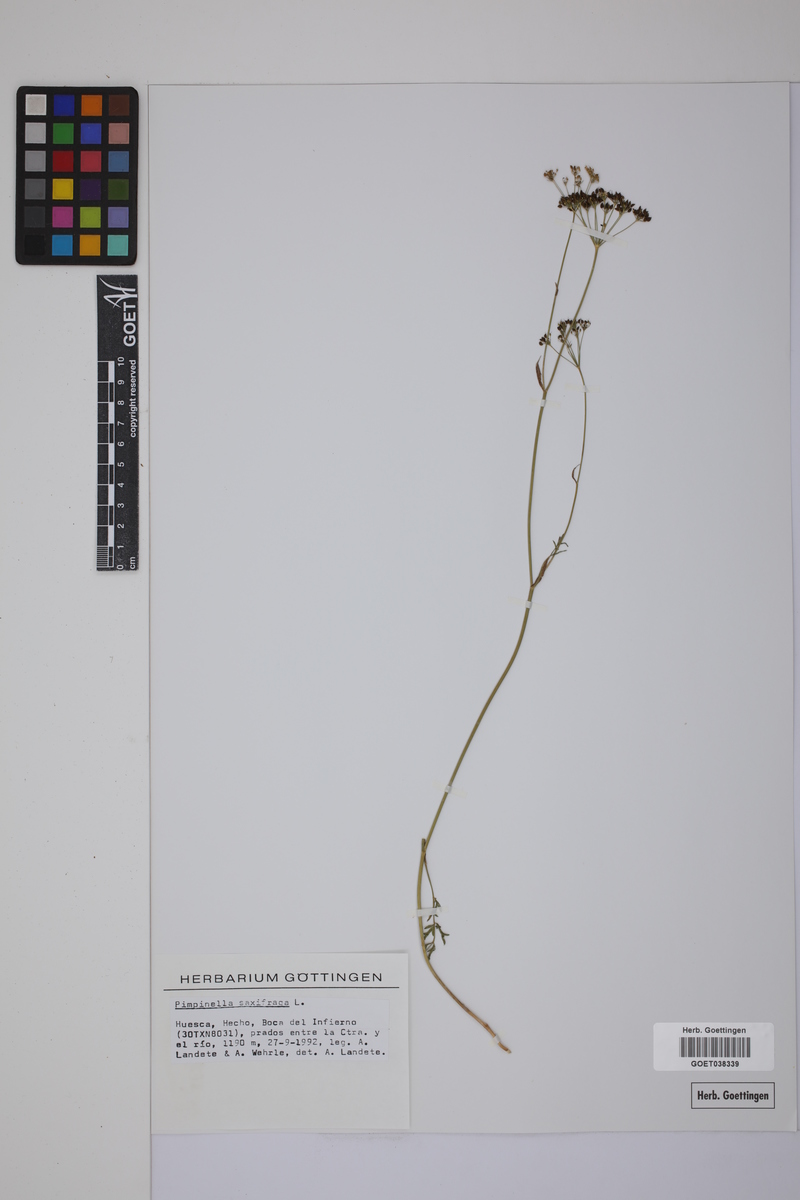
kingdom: Plantae
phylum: Tracheophyta
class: Magnoliopsida
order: Apiales
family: Apiaceae
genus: Pimpinella
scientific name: Pimpinella saxifraga
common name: Burnet-saxifrage
